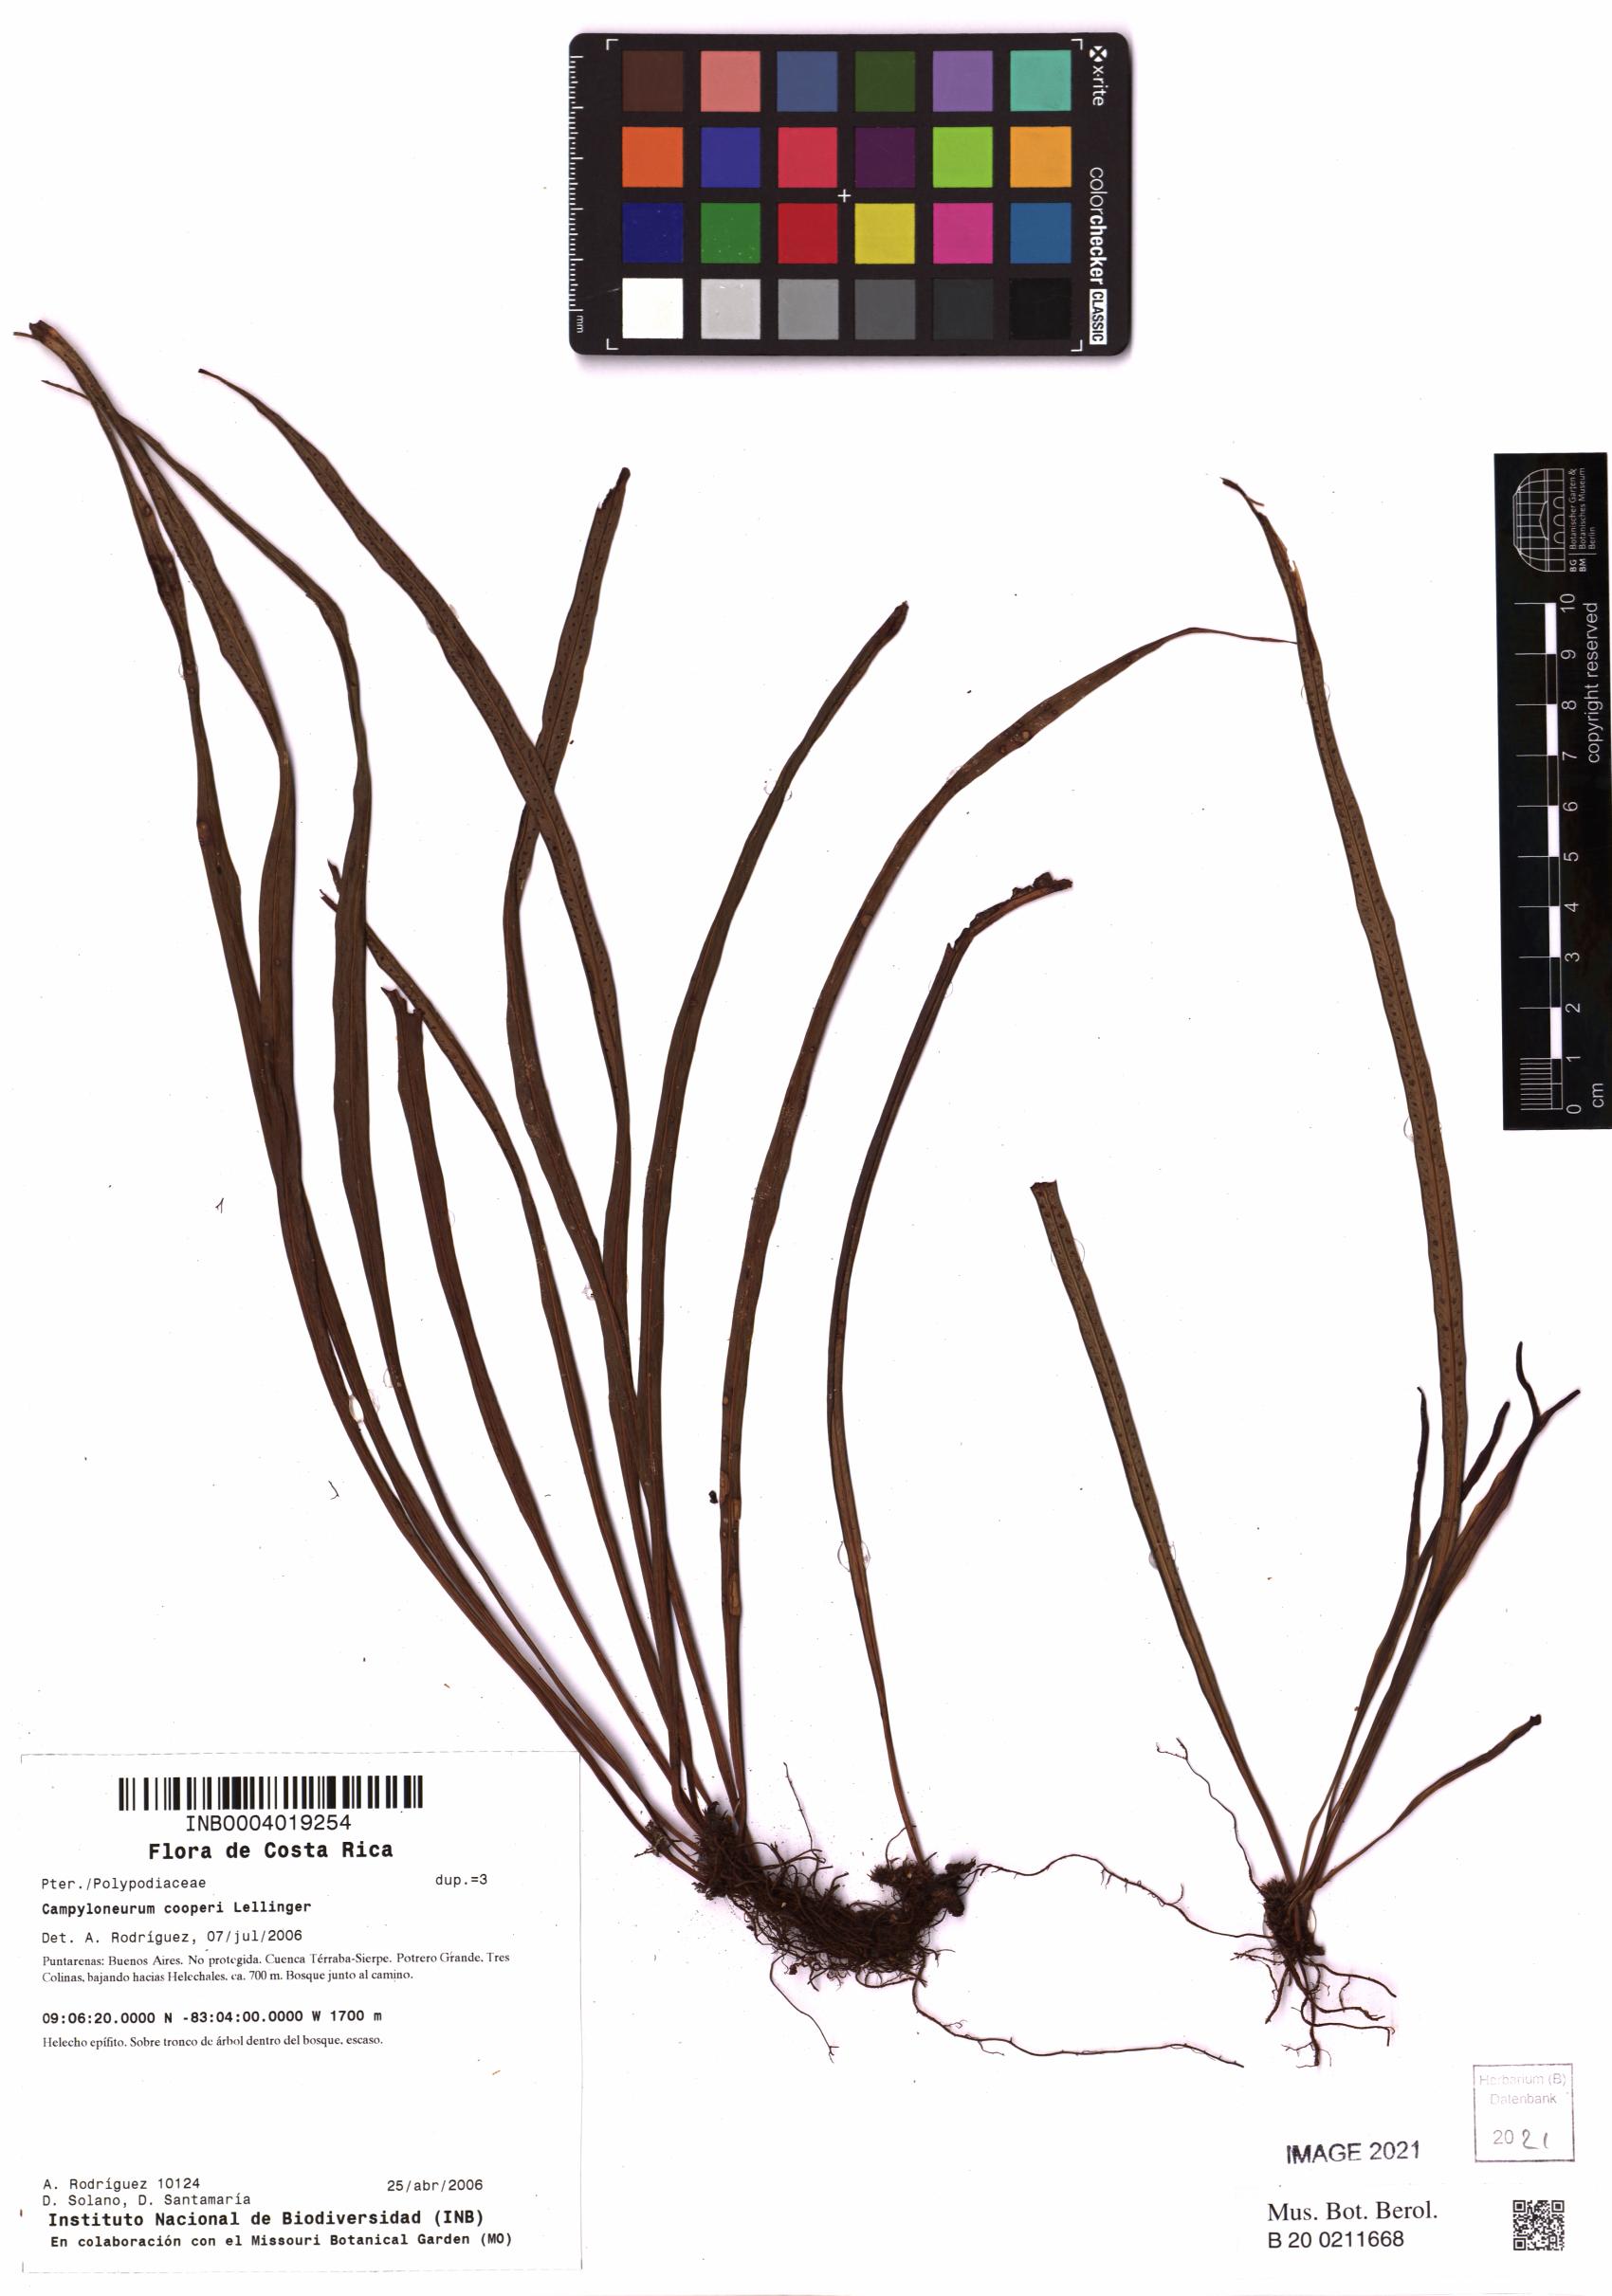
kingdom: Plantae
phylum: Tracheophyta
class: Polypodiopsida
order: Polypodiales
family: Polypodiaceae
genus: Campyloneurum
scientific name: Campyloneurum amphostenon
